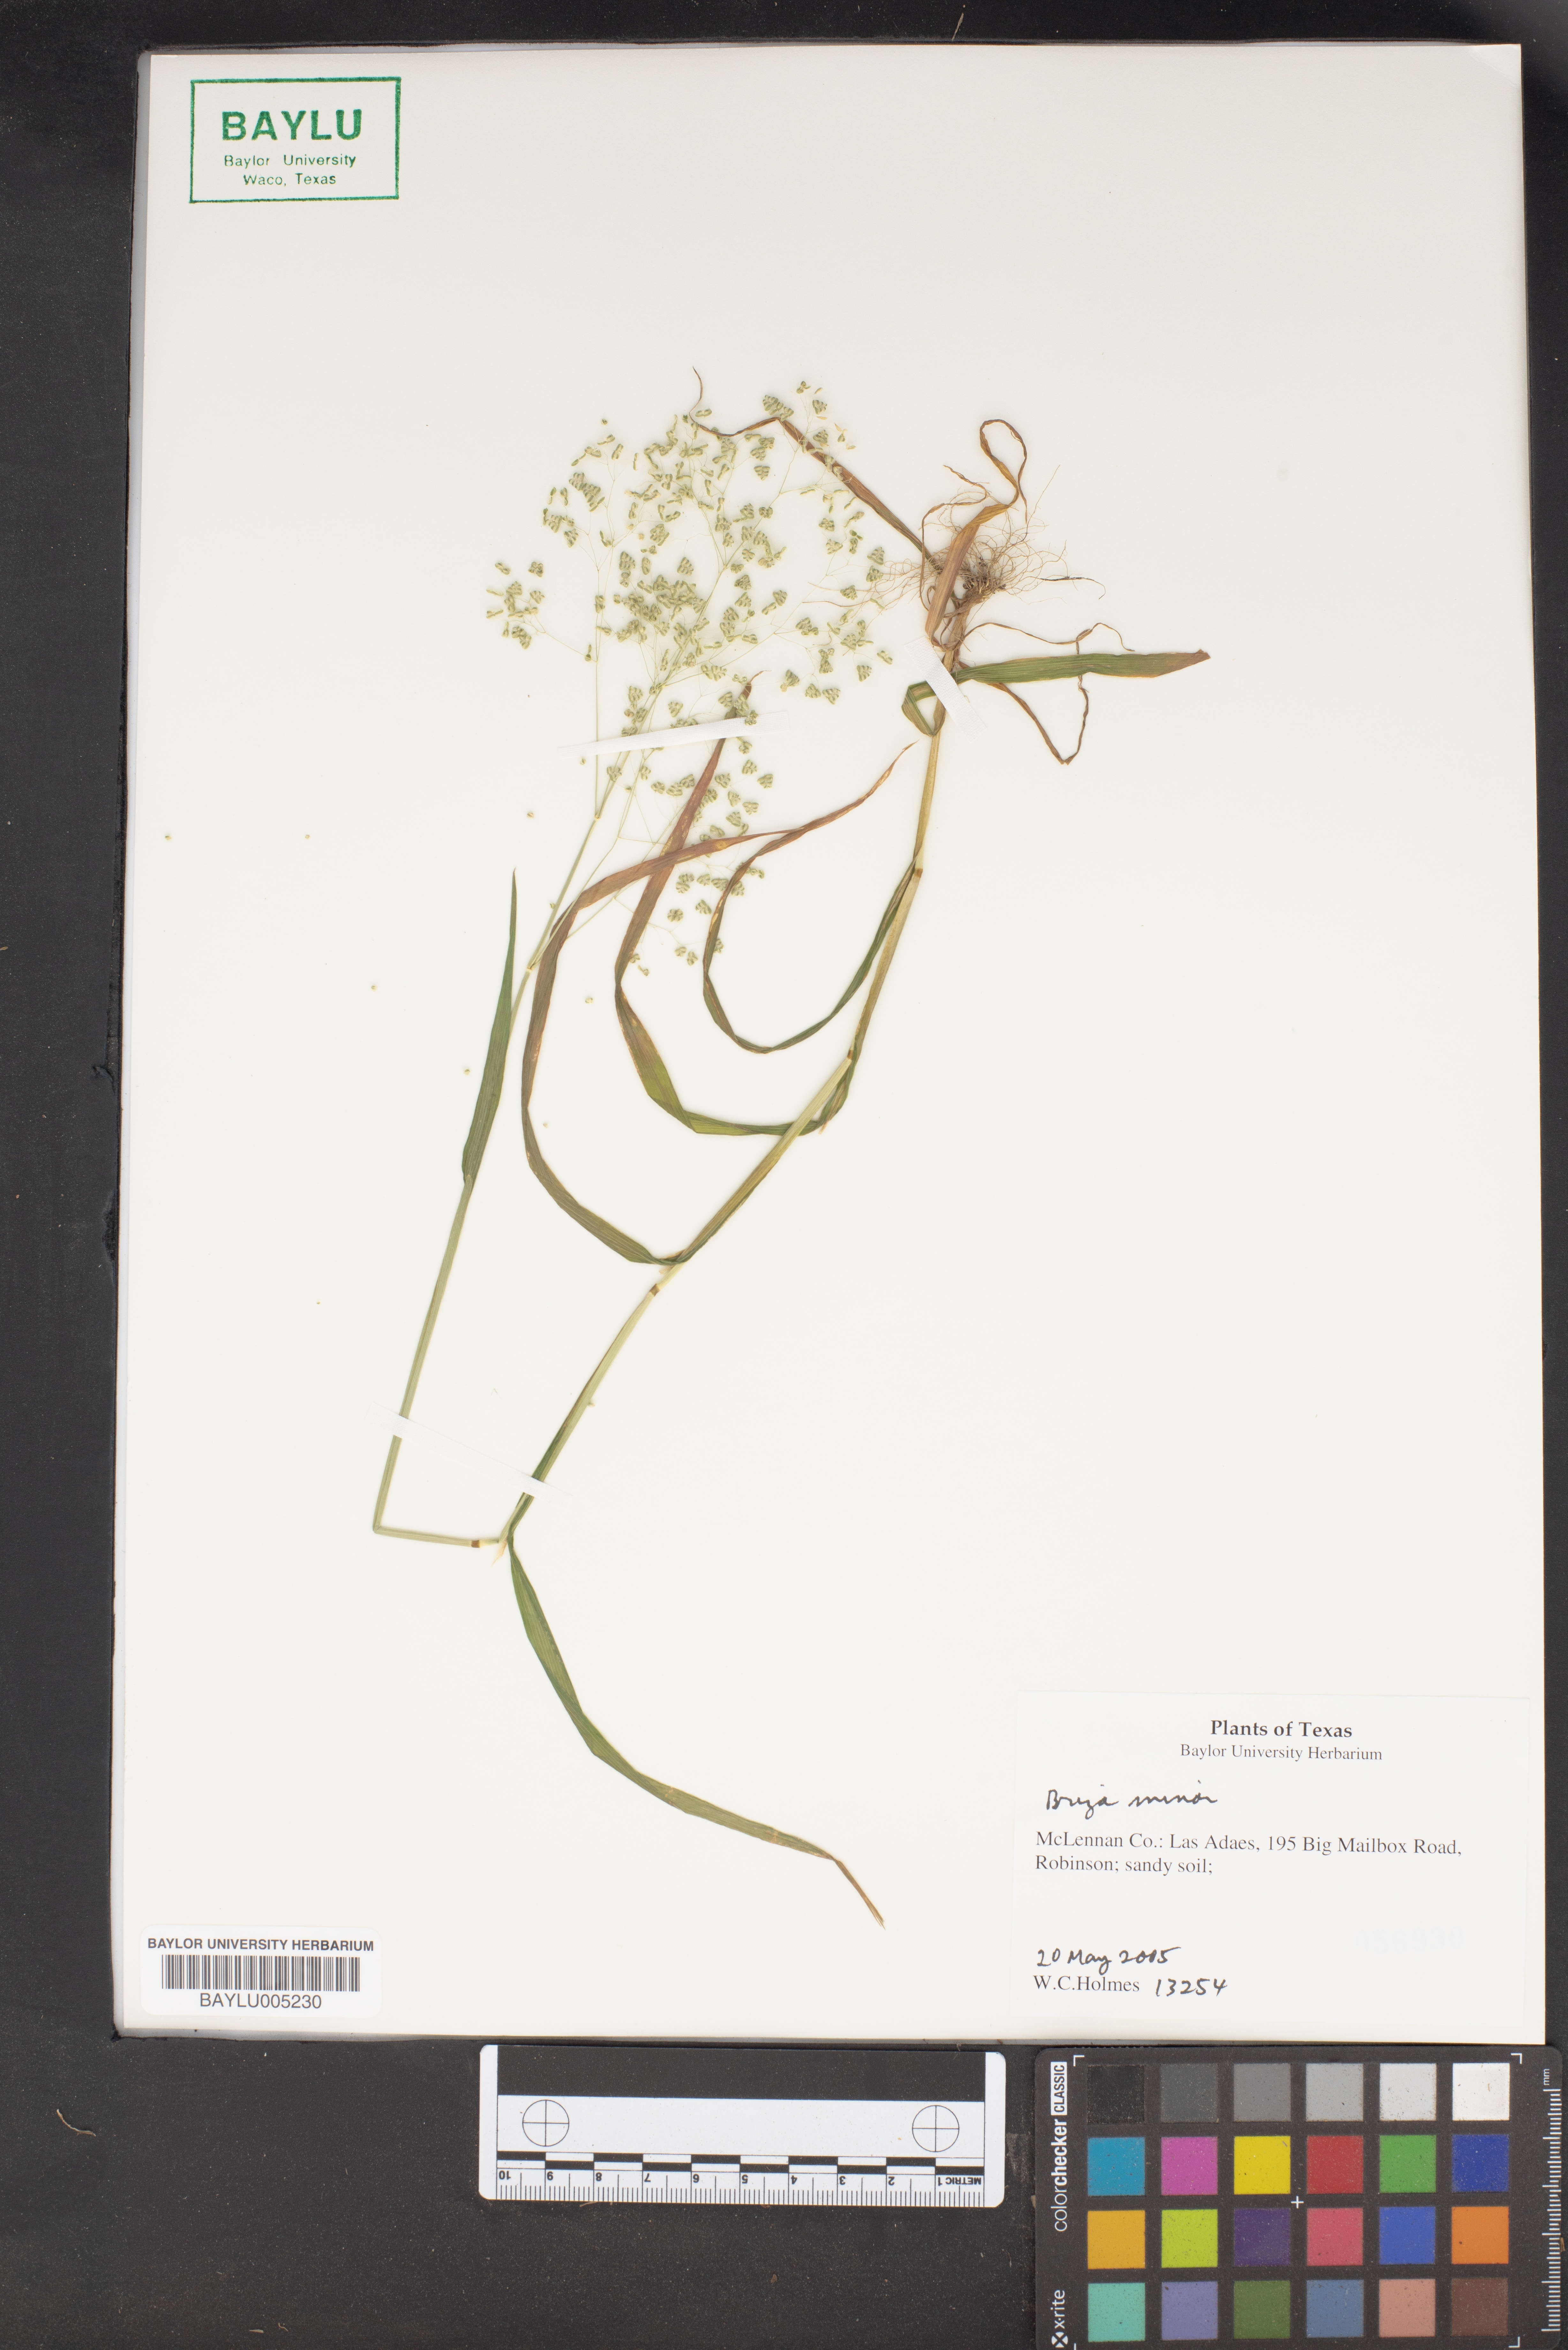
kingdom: Plantae
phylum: Tracheophyta
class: Liliopsida
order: Poales
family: Poaceae
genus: Briza
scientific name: Briza minor
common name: Lesser quaking-grass
